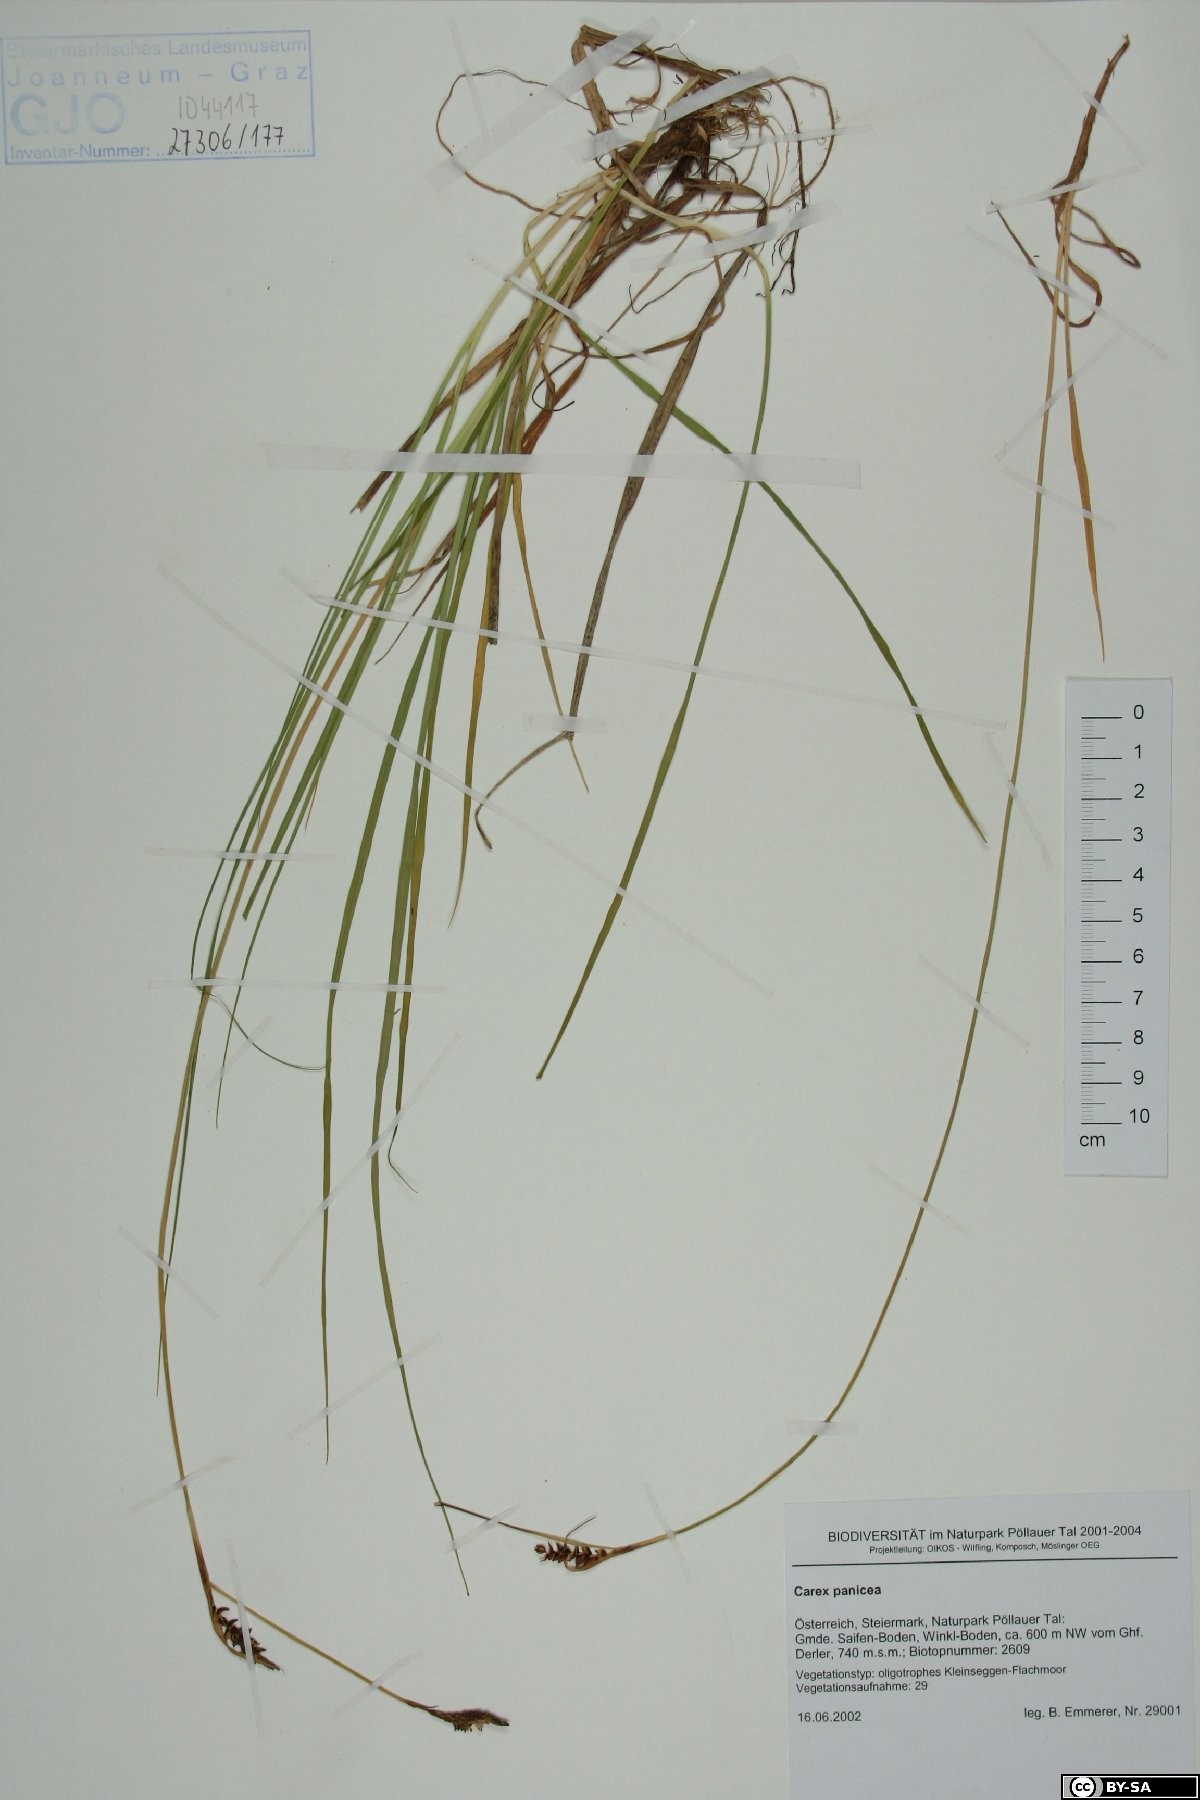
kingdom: Plantae
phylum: Tracheophyta
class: Liliopsida
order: Poales
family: Cyperaceae
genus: Carex
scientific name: Carex panicea
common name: Carnation sedge
